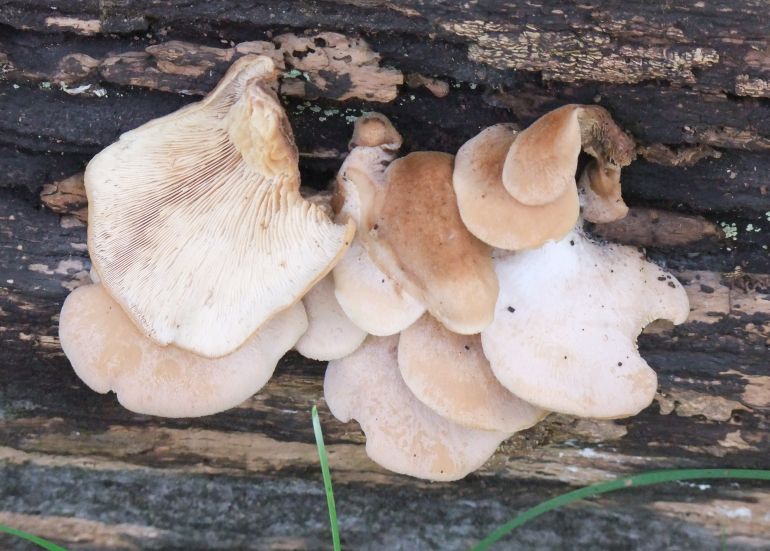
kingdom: Fungi
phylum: Basidiomycota
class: Agaricomycetes
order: Russulales
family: Auriscalpiaceae
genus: Lentinellus
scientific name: Lentinellus ursinus
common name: børstehåret savbladhat
